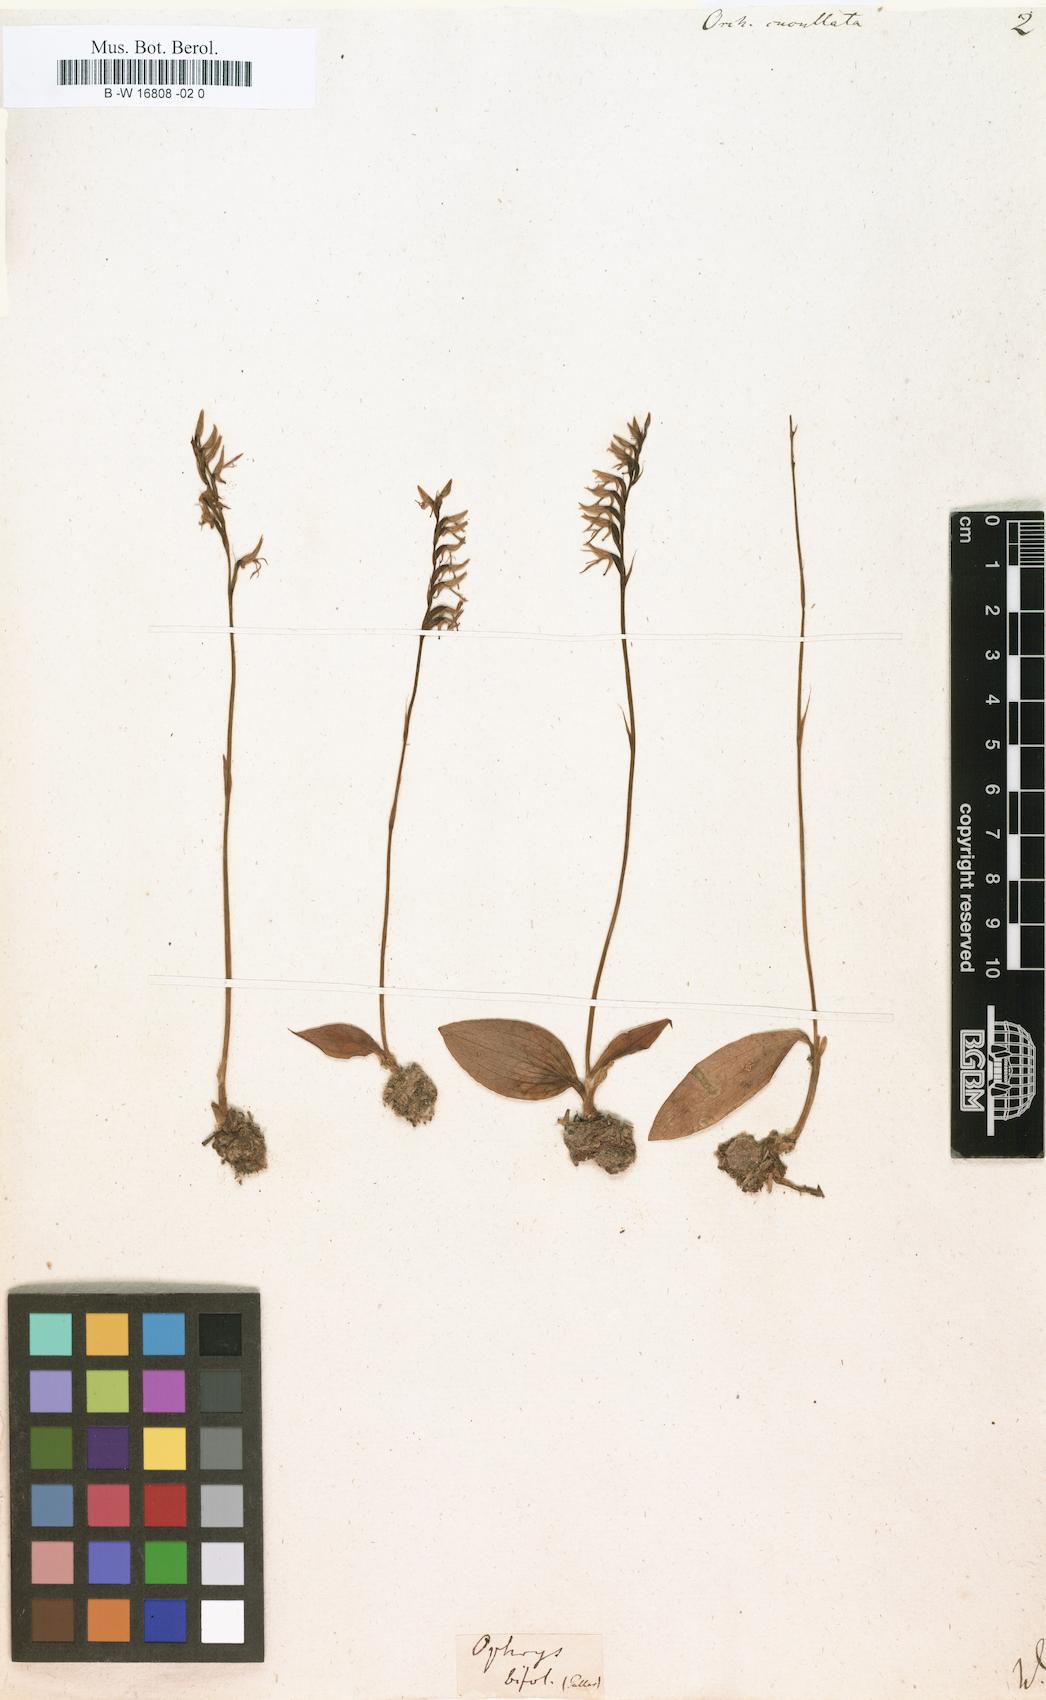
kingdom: Plantae
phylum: Tracheophyta
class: Liliopsida
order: Asparagales
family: Orchidaceae
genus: Hemipilia
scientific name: Hemipilia cucullata
